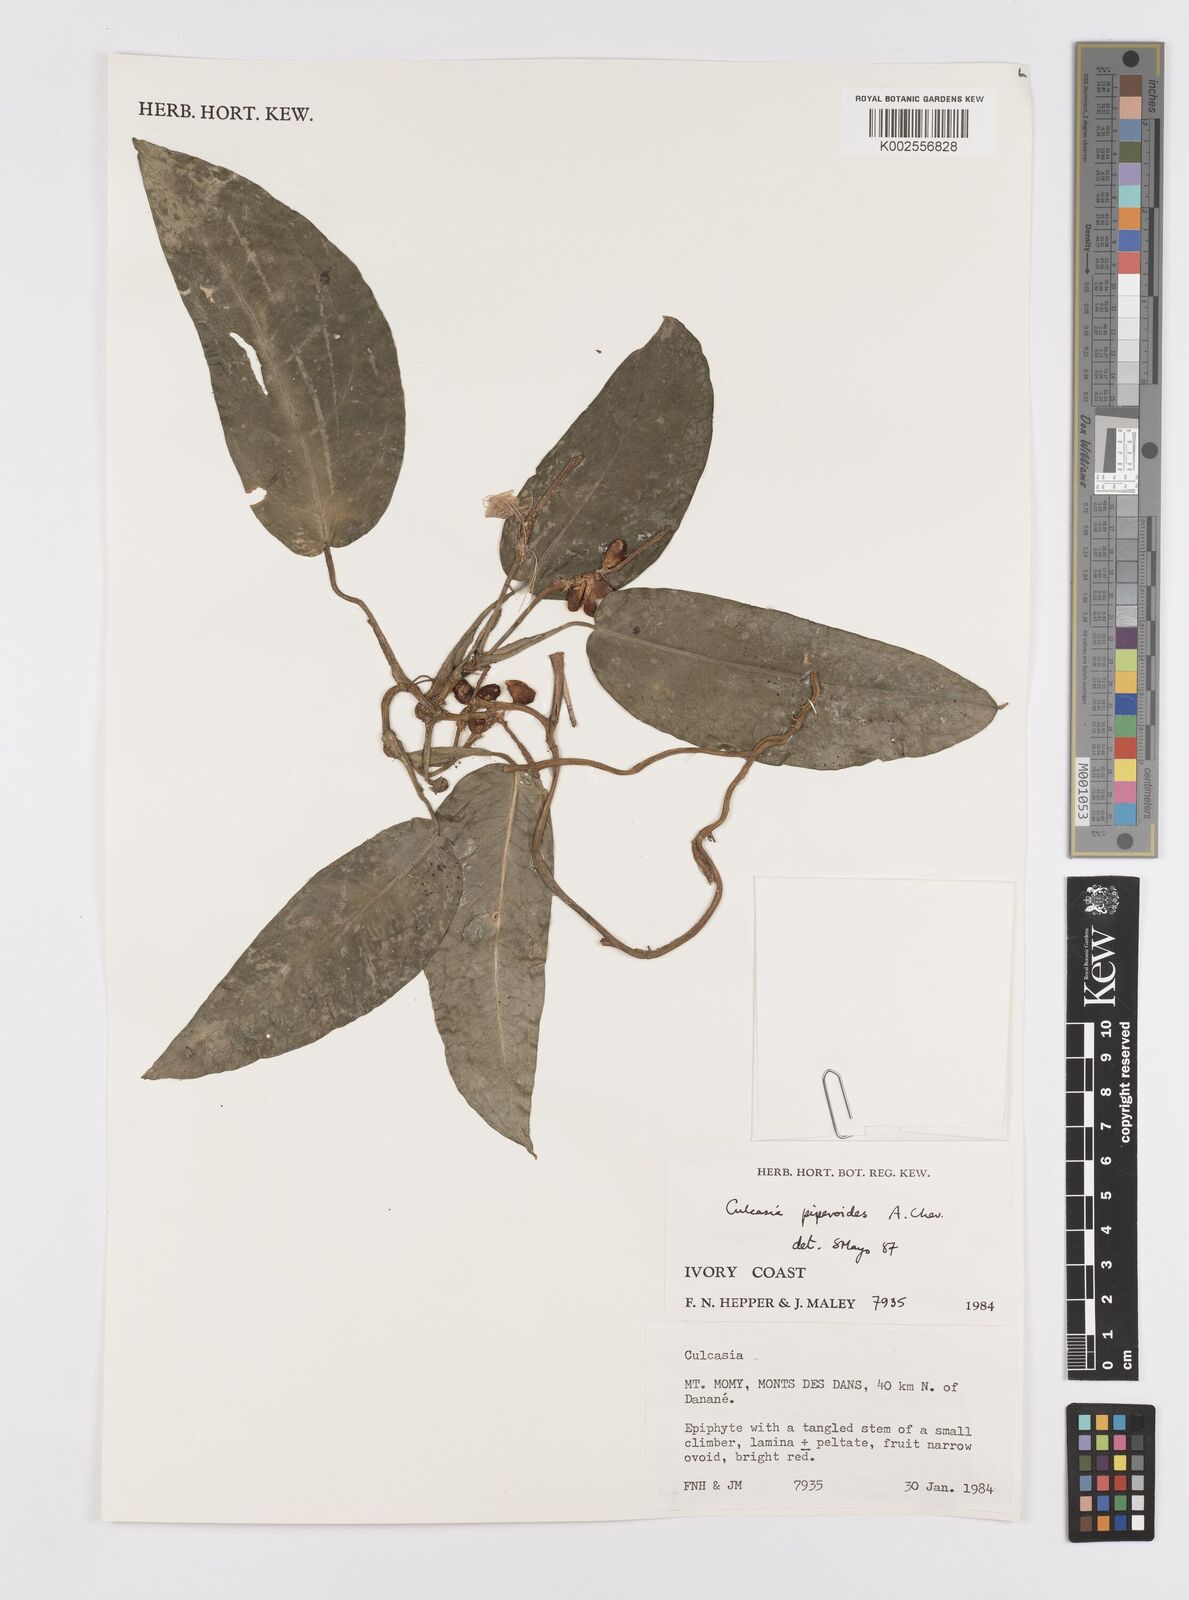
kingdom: Plantae
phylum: Tracheophyta
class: Liliopsida
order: Alismatales
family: Araceae
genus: Culcasia
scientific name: Culcasia parviflora
